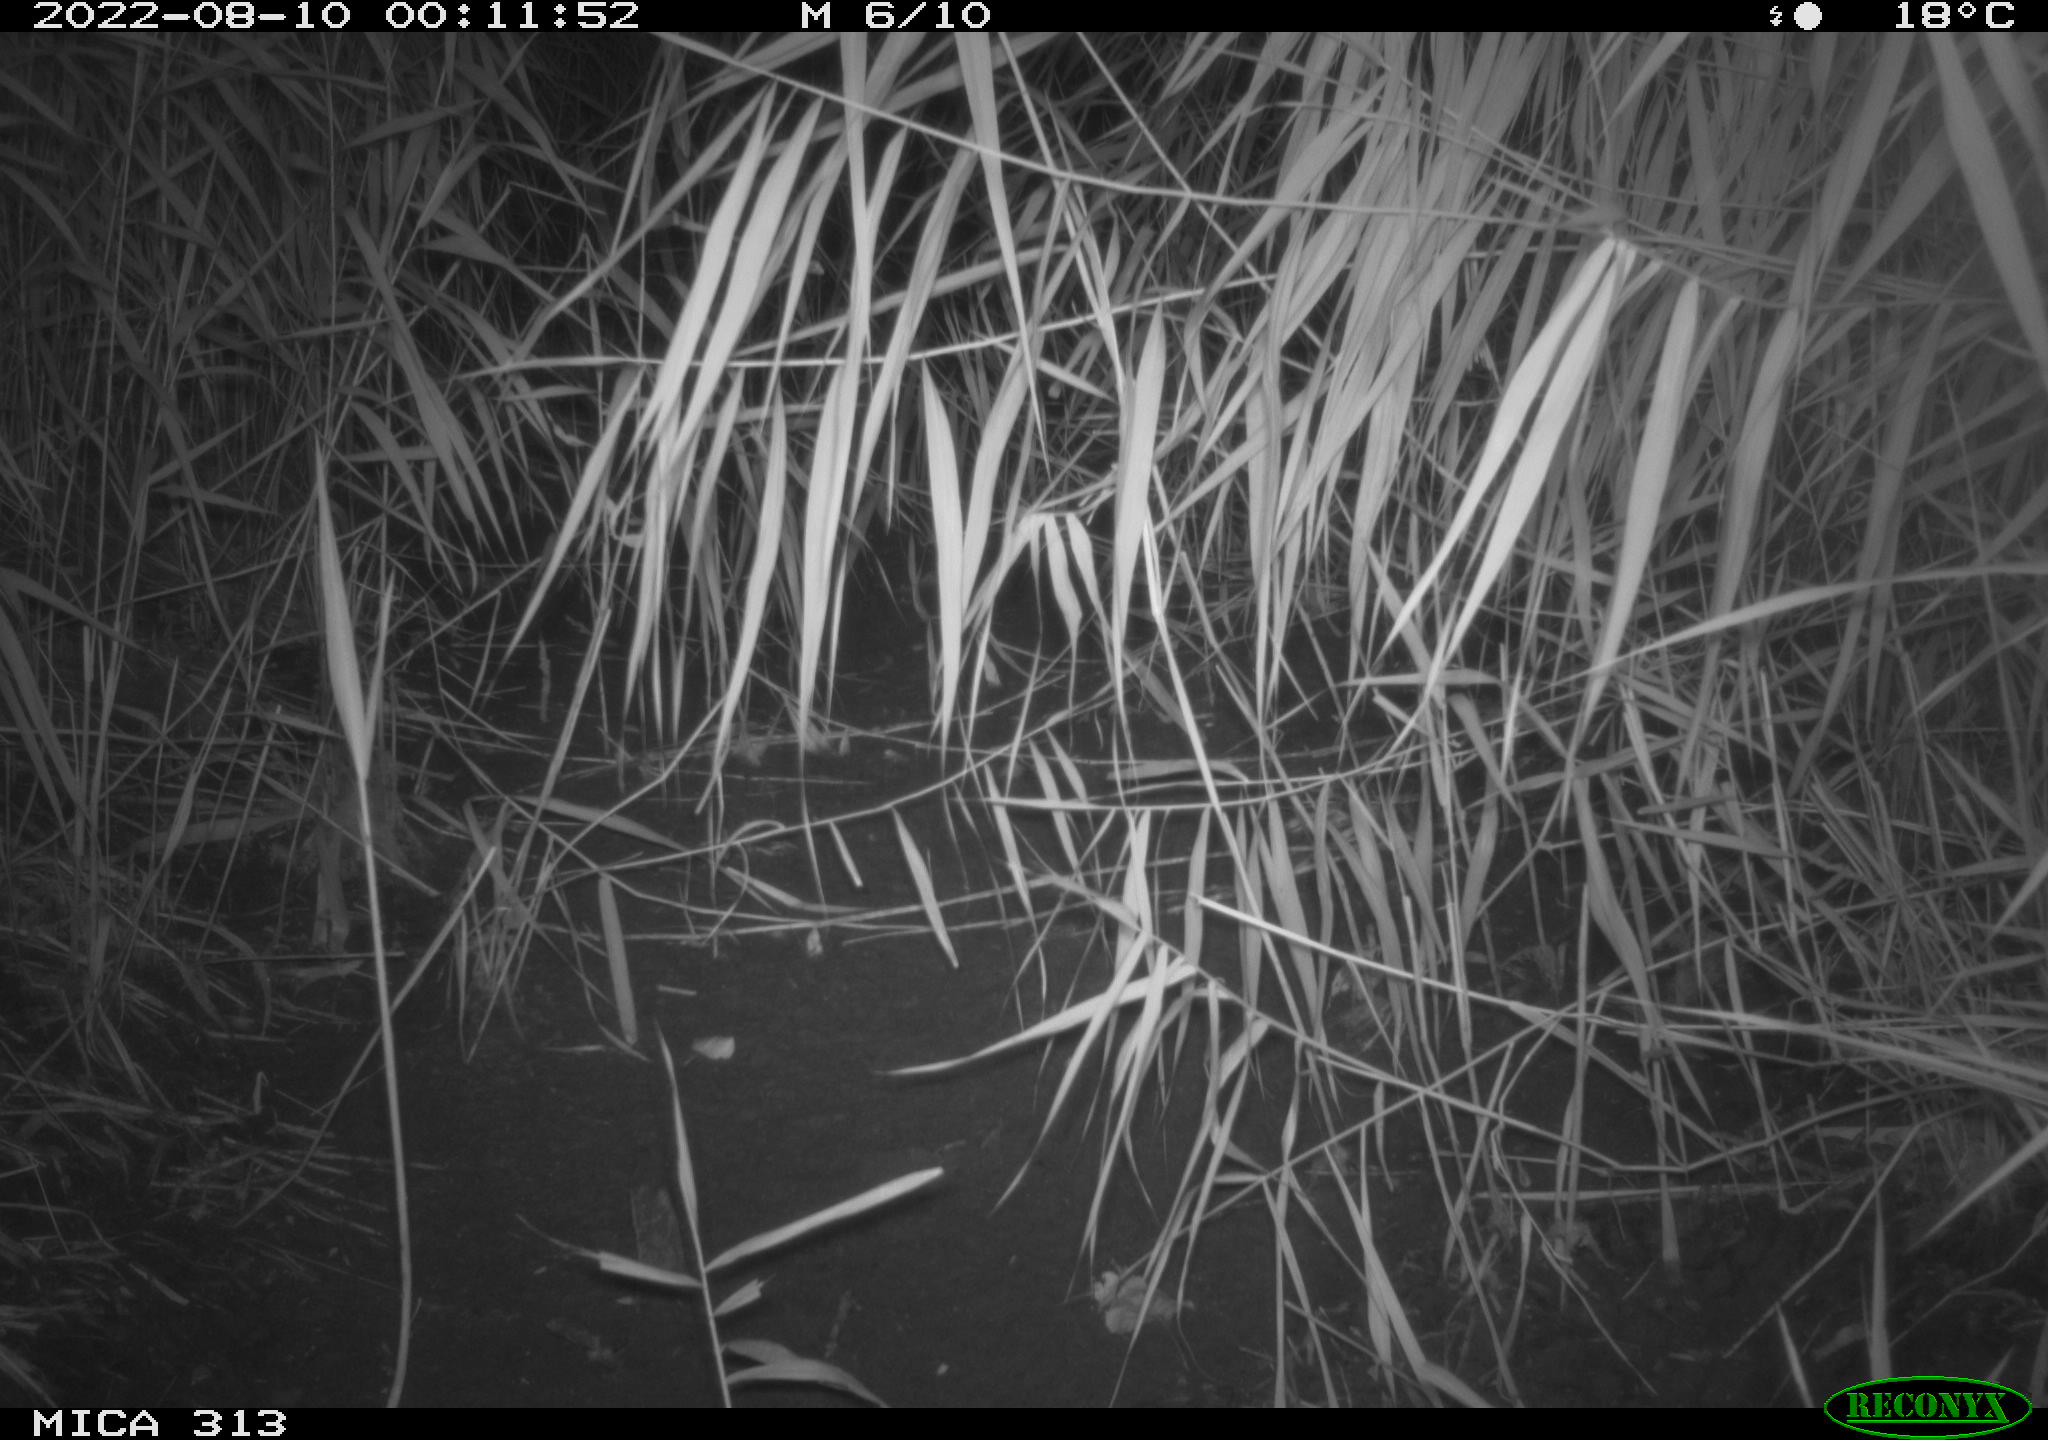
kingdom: Animalia
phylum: Chordata
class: Mammalia
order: Rodentia
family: Muridae
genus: Rattus
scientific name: Rattus norvegicus
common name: Brown rat
